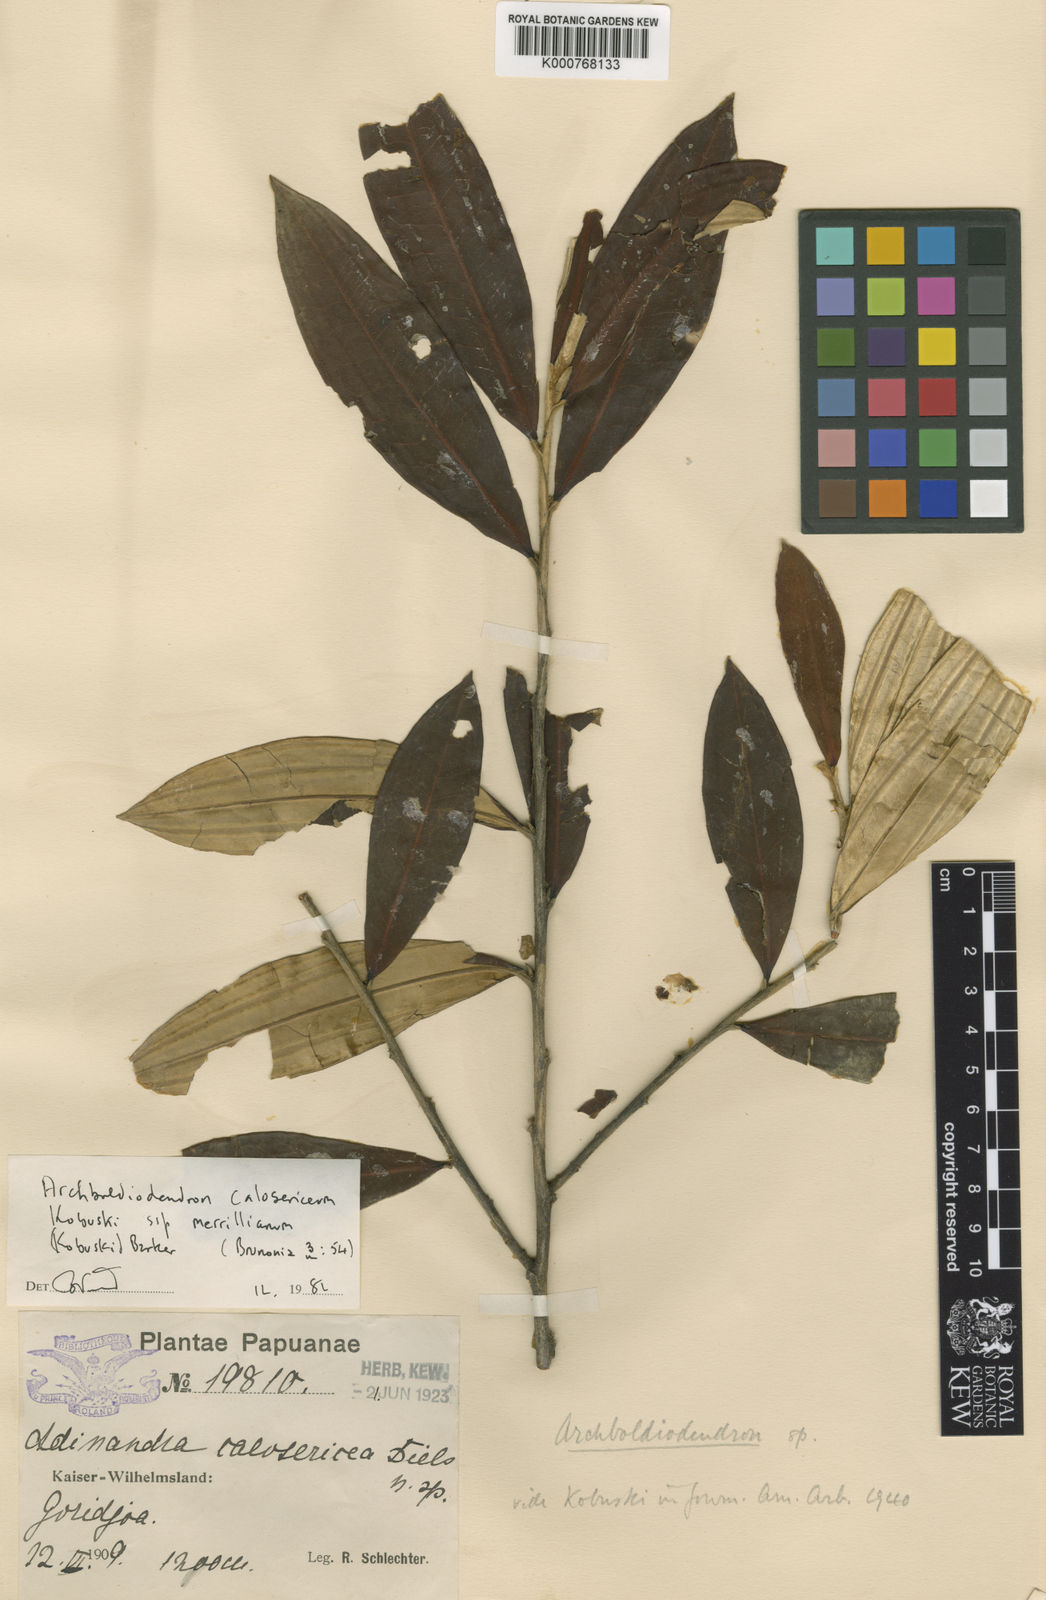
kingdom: Plantae
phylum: Tracheophyta
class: Magnoliopsida
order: Ericales
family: Pentaphylacaceae
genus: Archboldiodendron
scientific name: Archboldiodendron calosericeum
